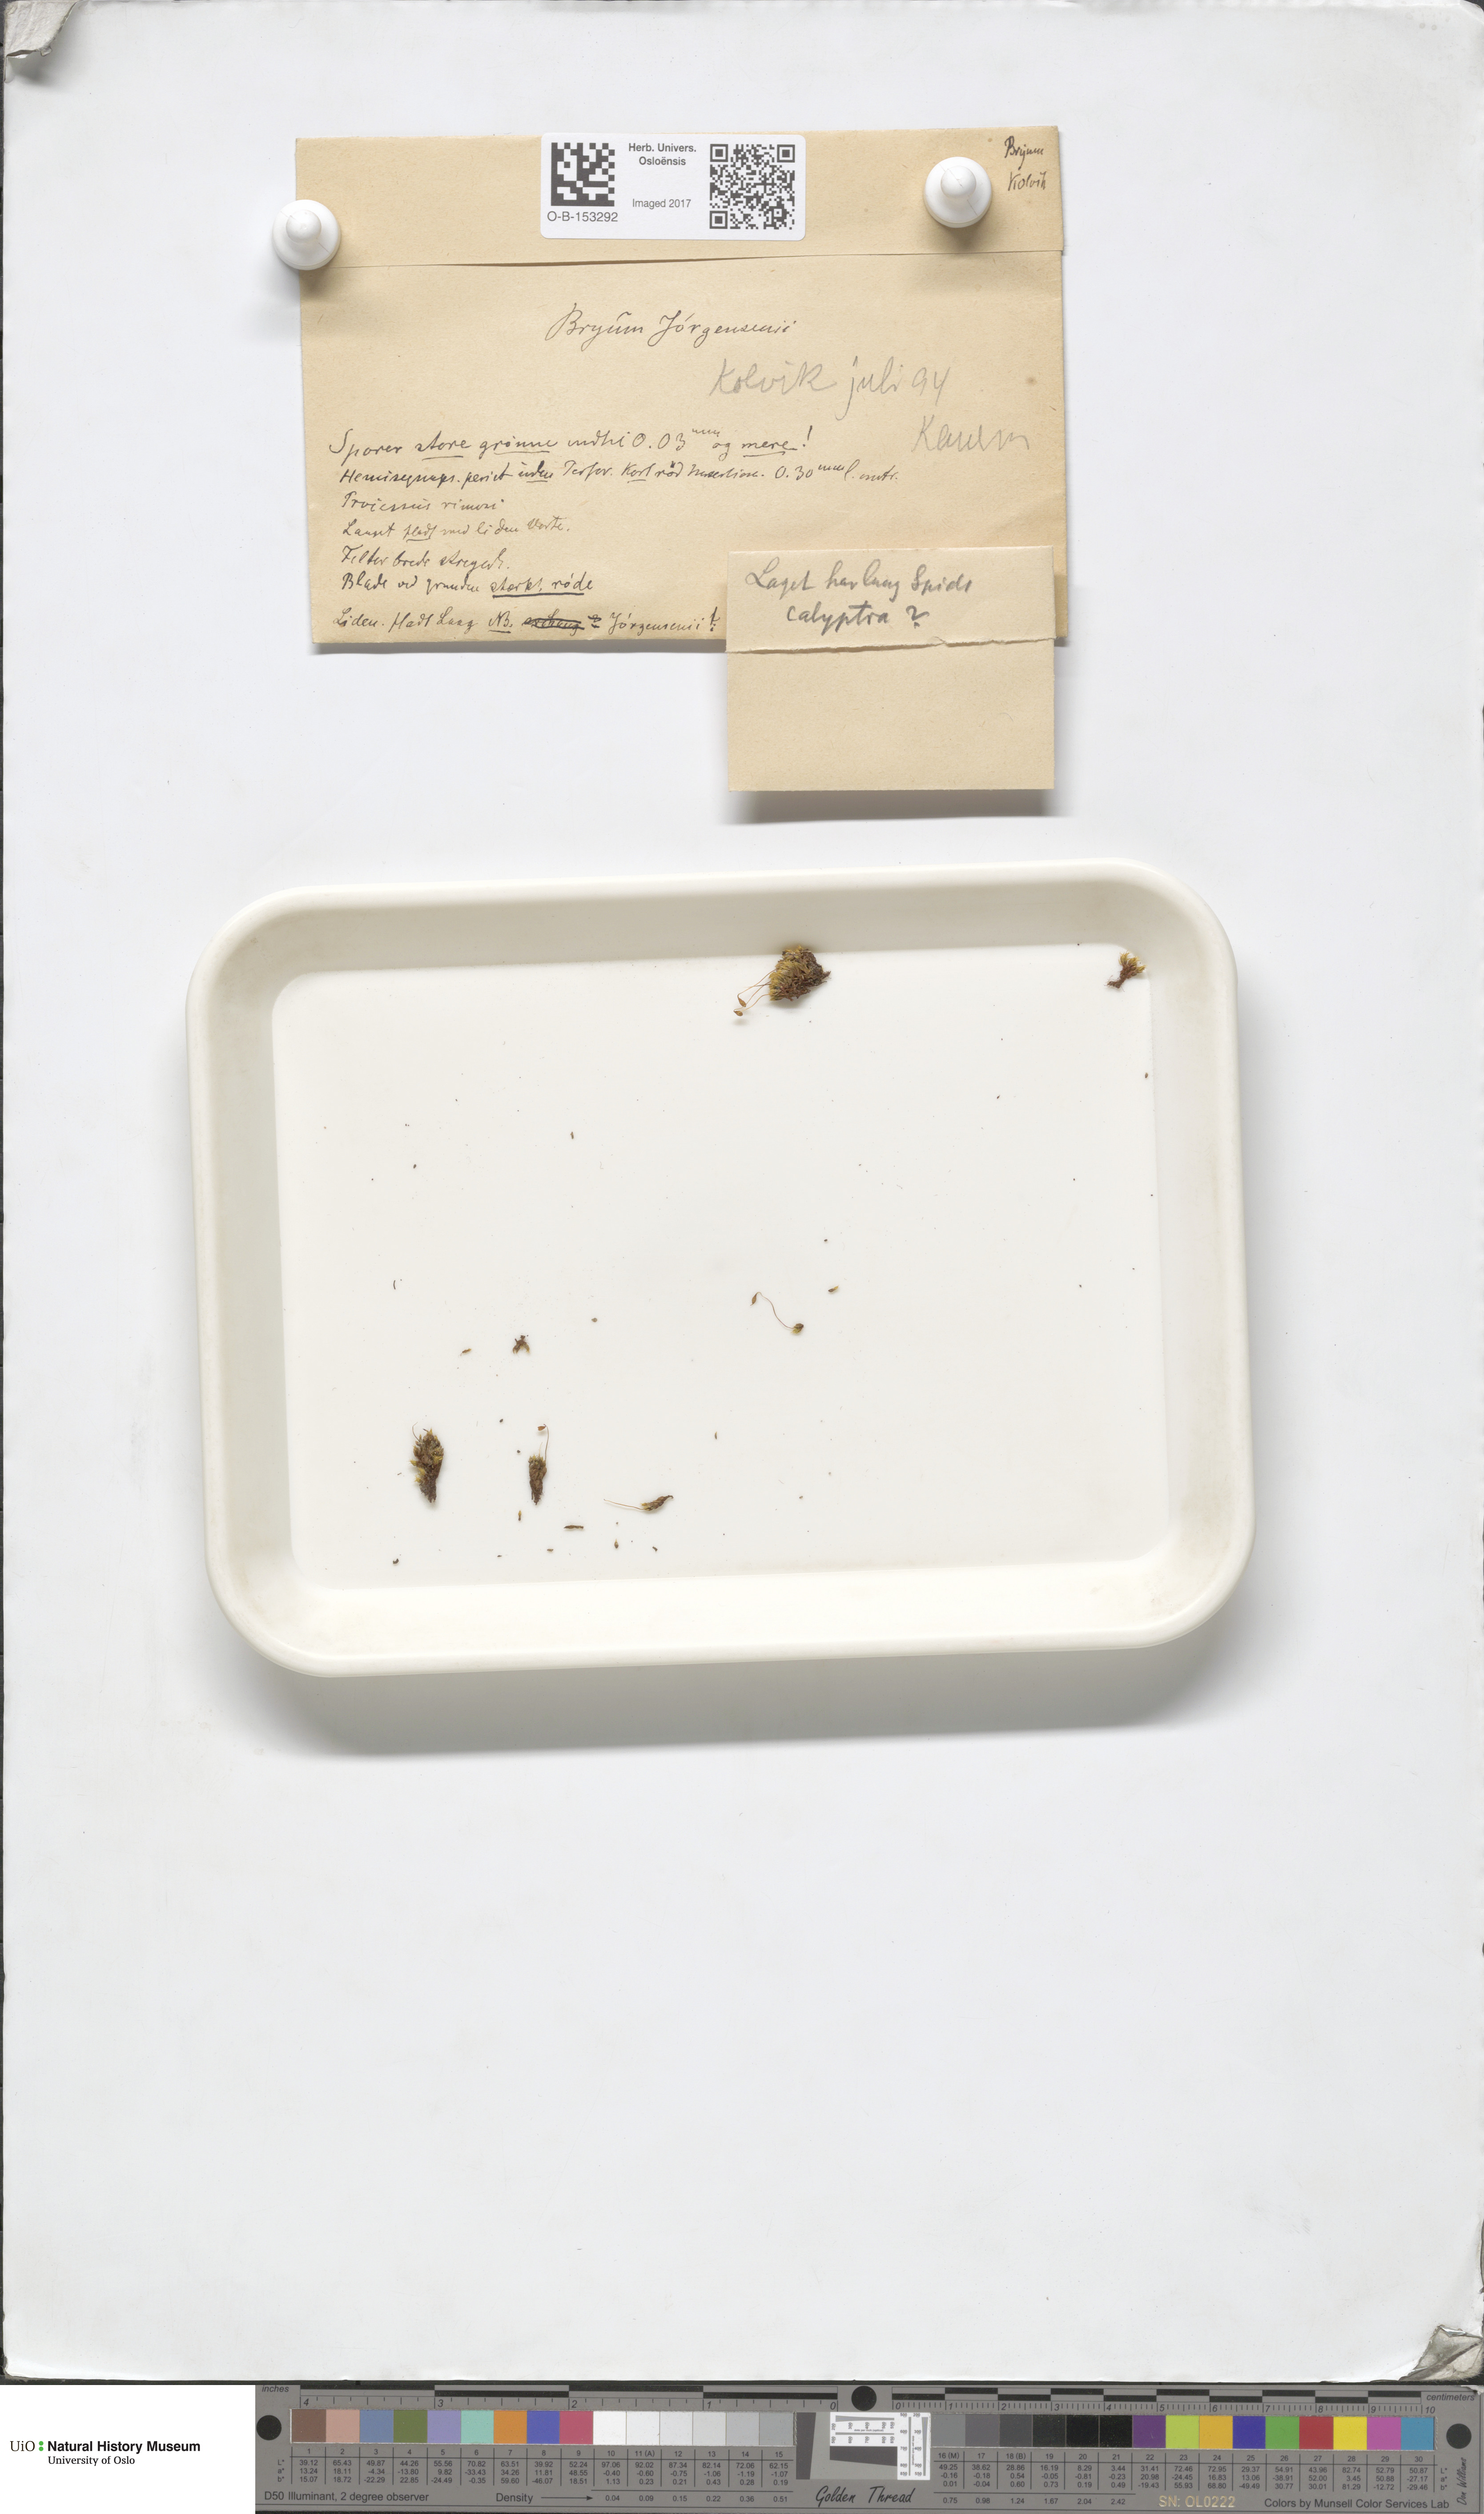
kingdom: Plantae
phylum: Bryophyta
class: Bryopsida
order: Bryales
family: Bryaceae
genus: Ptychostomum
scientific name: Ptychostomum inclinatum
